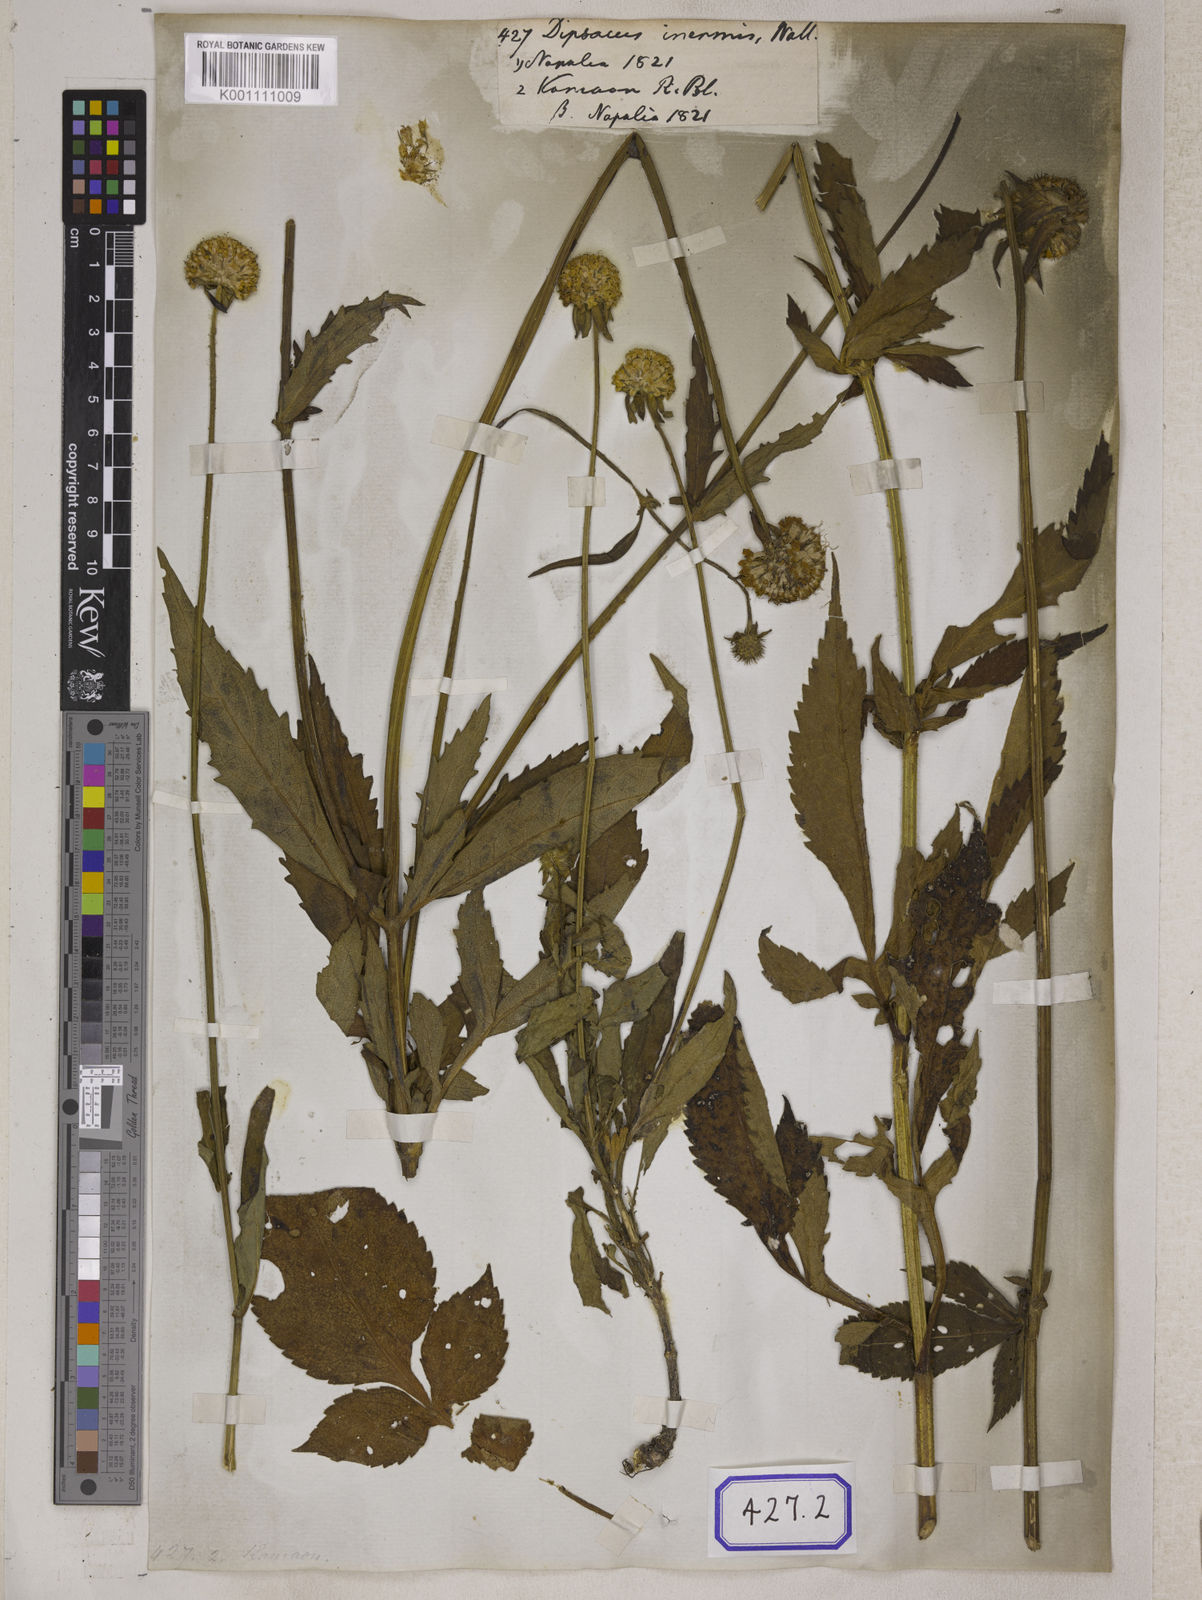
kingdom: Plantae
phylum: Tracheophyta
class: Magnoliopsida
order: Dipsacales
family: Caprifoliaceae
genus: Dipsacus
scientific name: Dipsacus inermis
